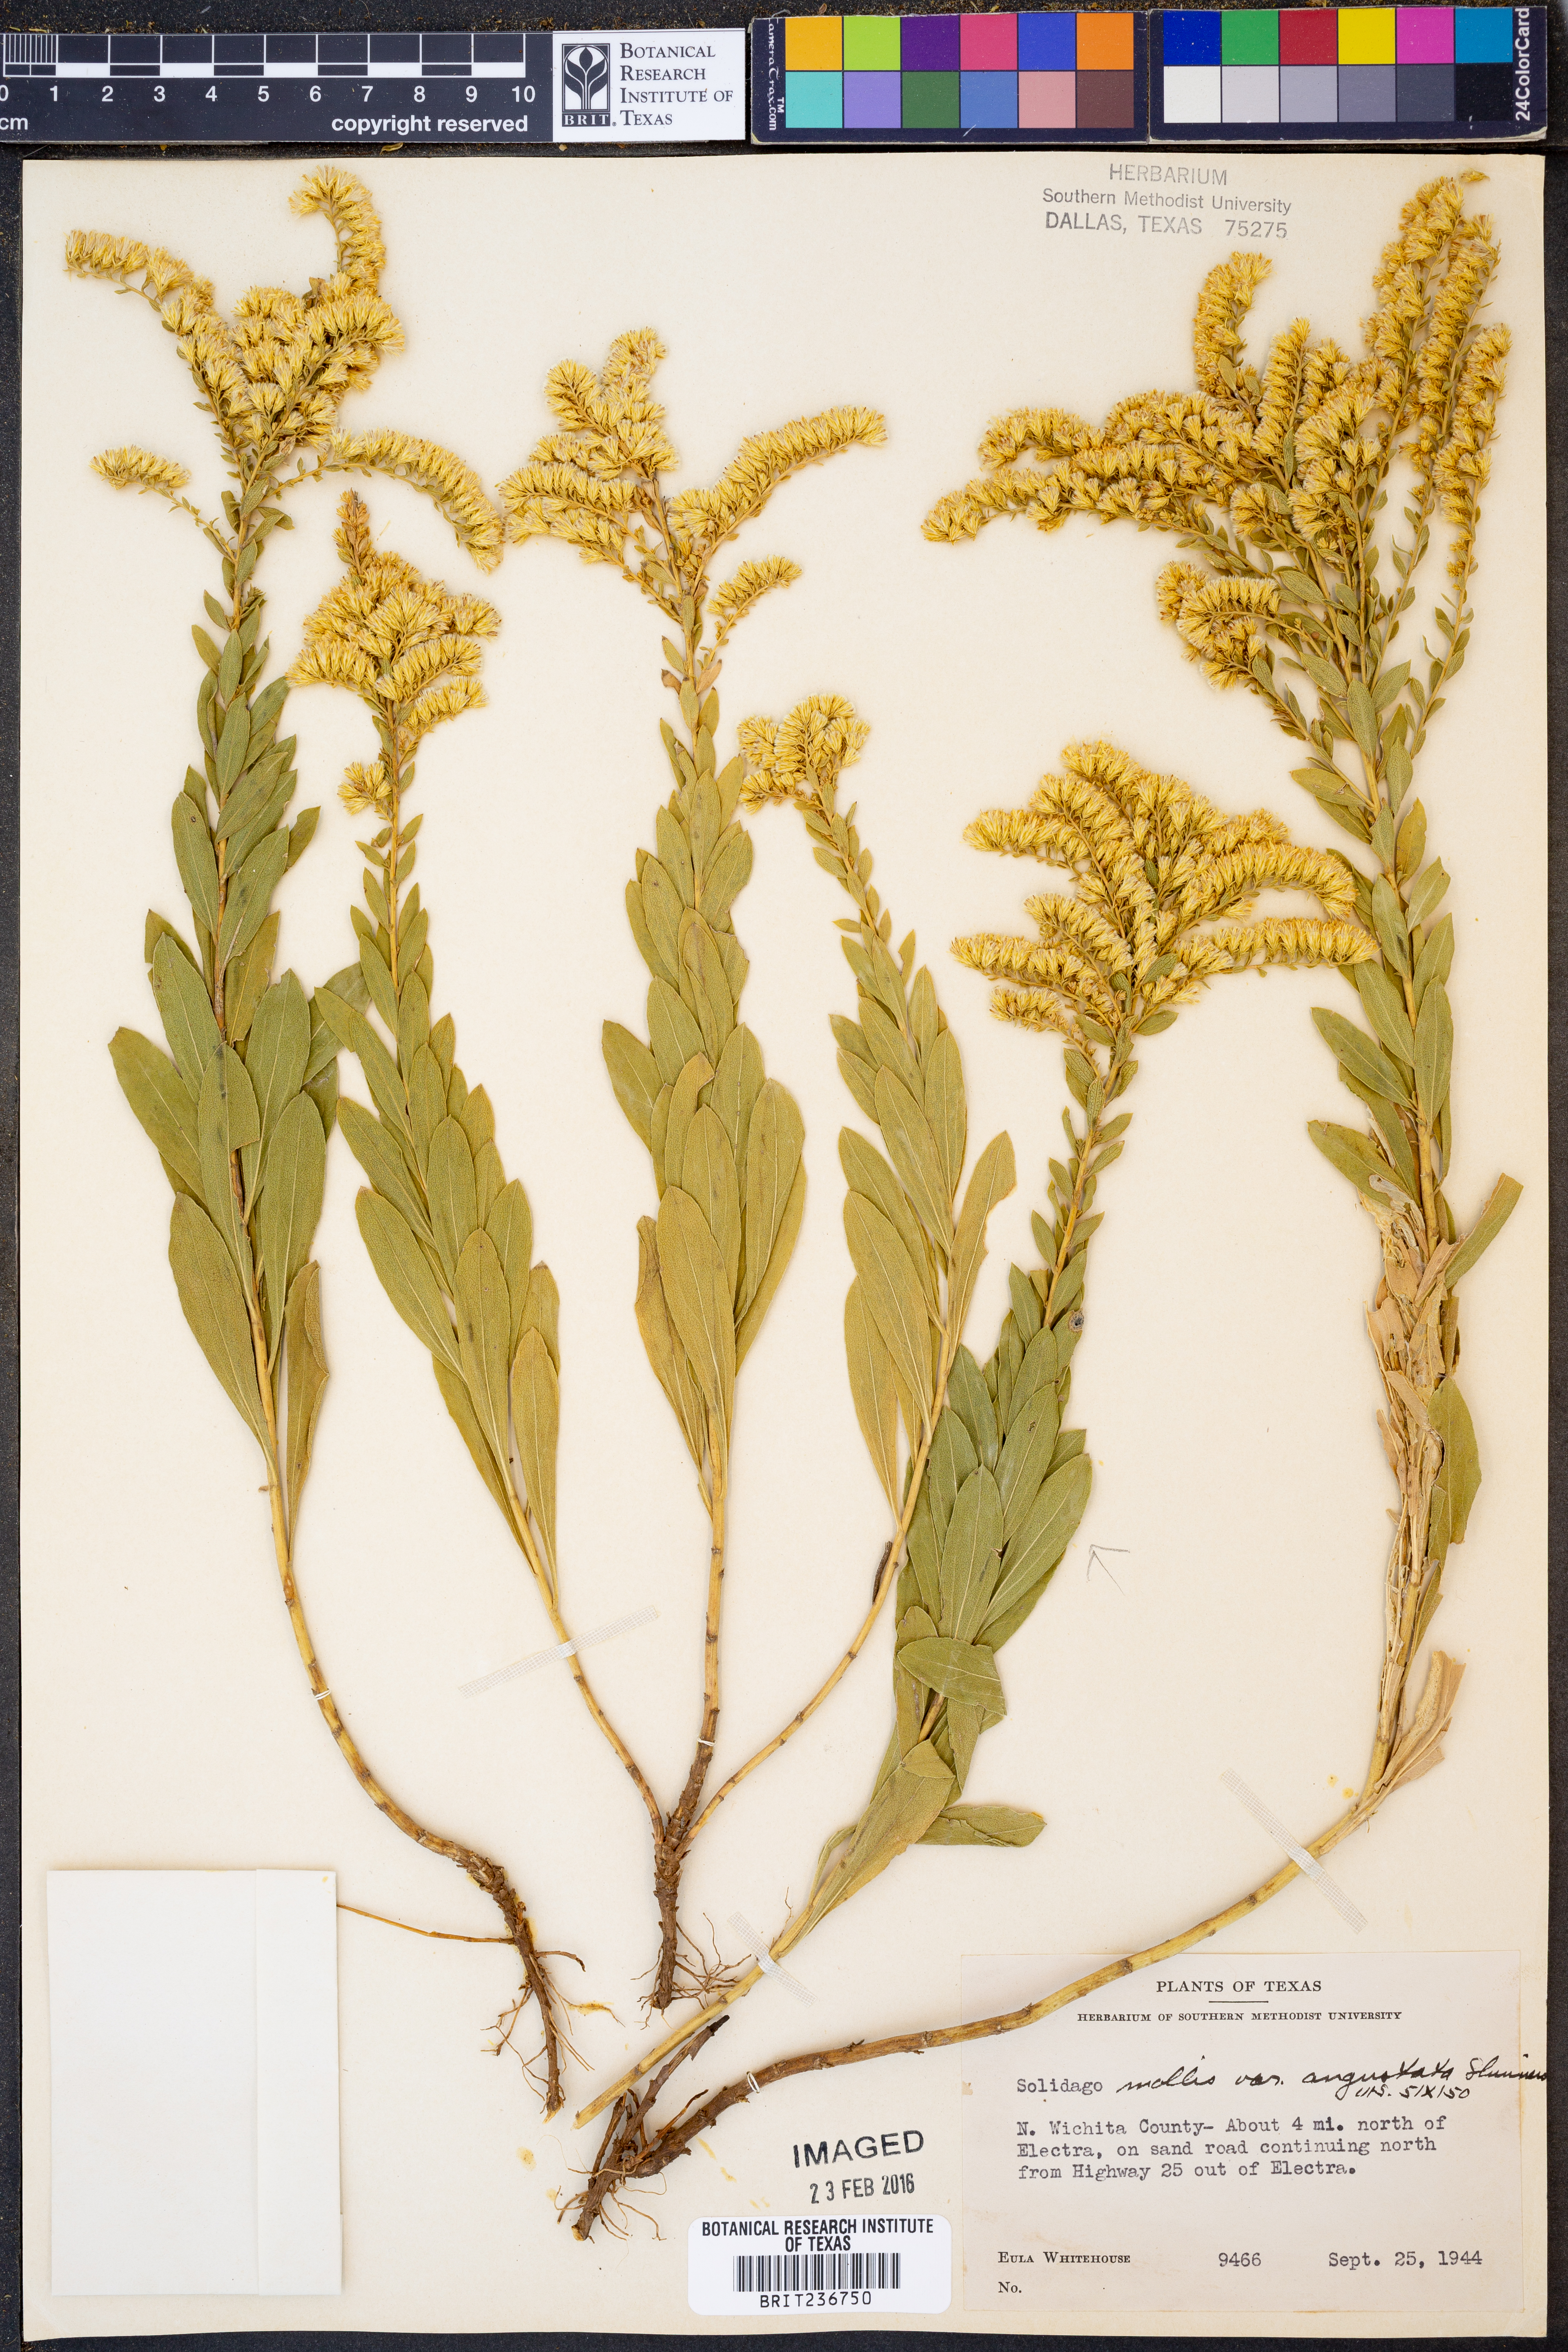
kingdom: Plantae
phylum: Tracheophyta
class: Magnoliopsida
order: Asterales
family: Asteraceae
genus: Solidago
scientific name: Solidago mollis
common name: Ashly goldenrod
